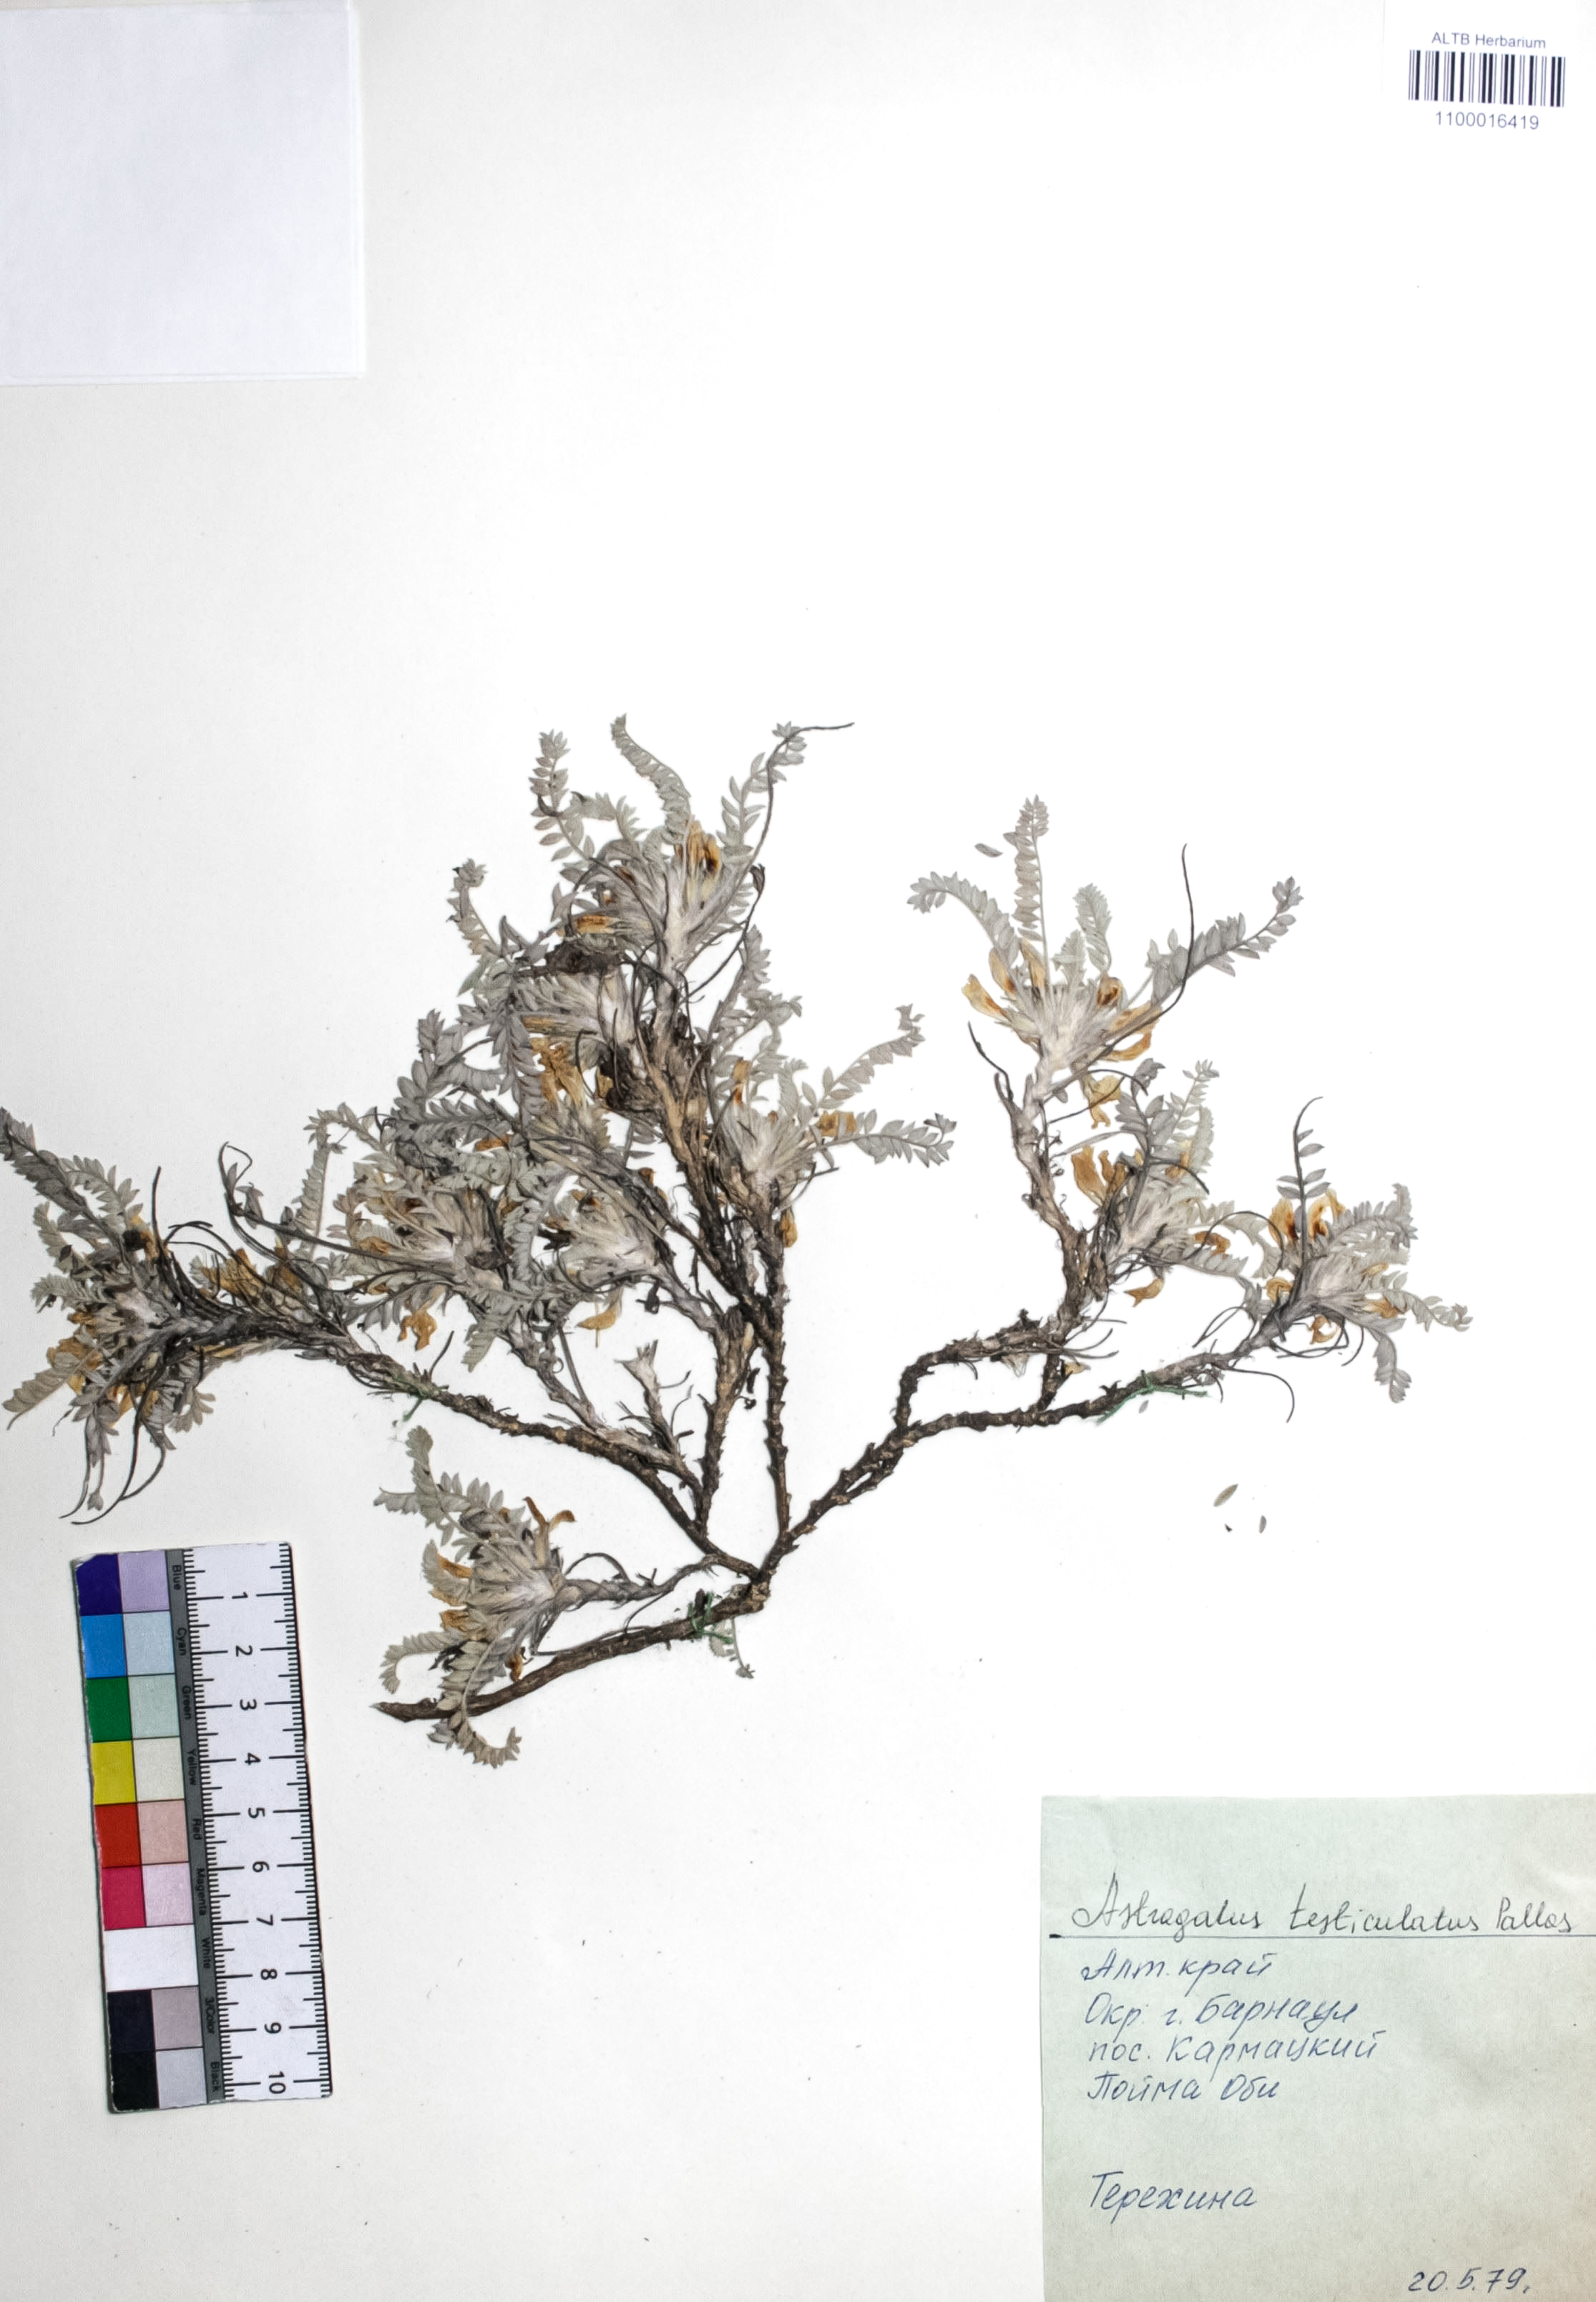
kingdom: Plantae
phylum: Tracheophyta
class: Magnoliopsida
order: Fabales
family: Fabaceae
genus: Astragalus
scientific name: Astragalus testiculatus
